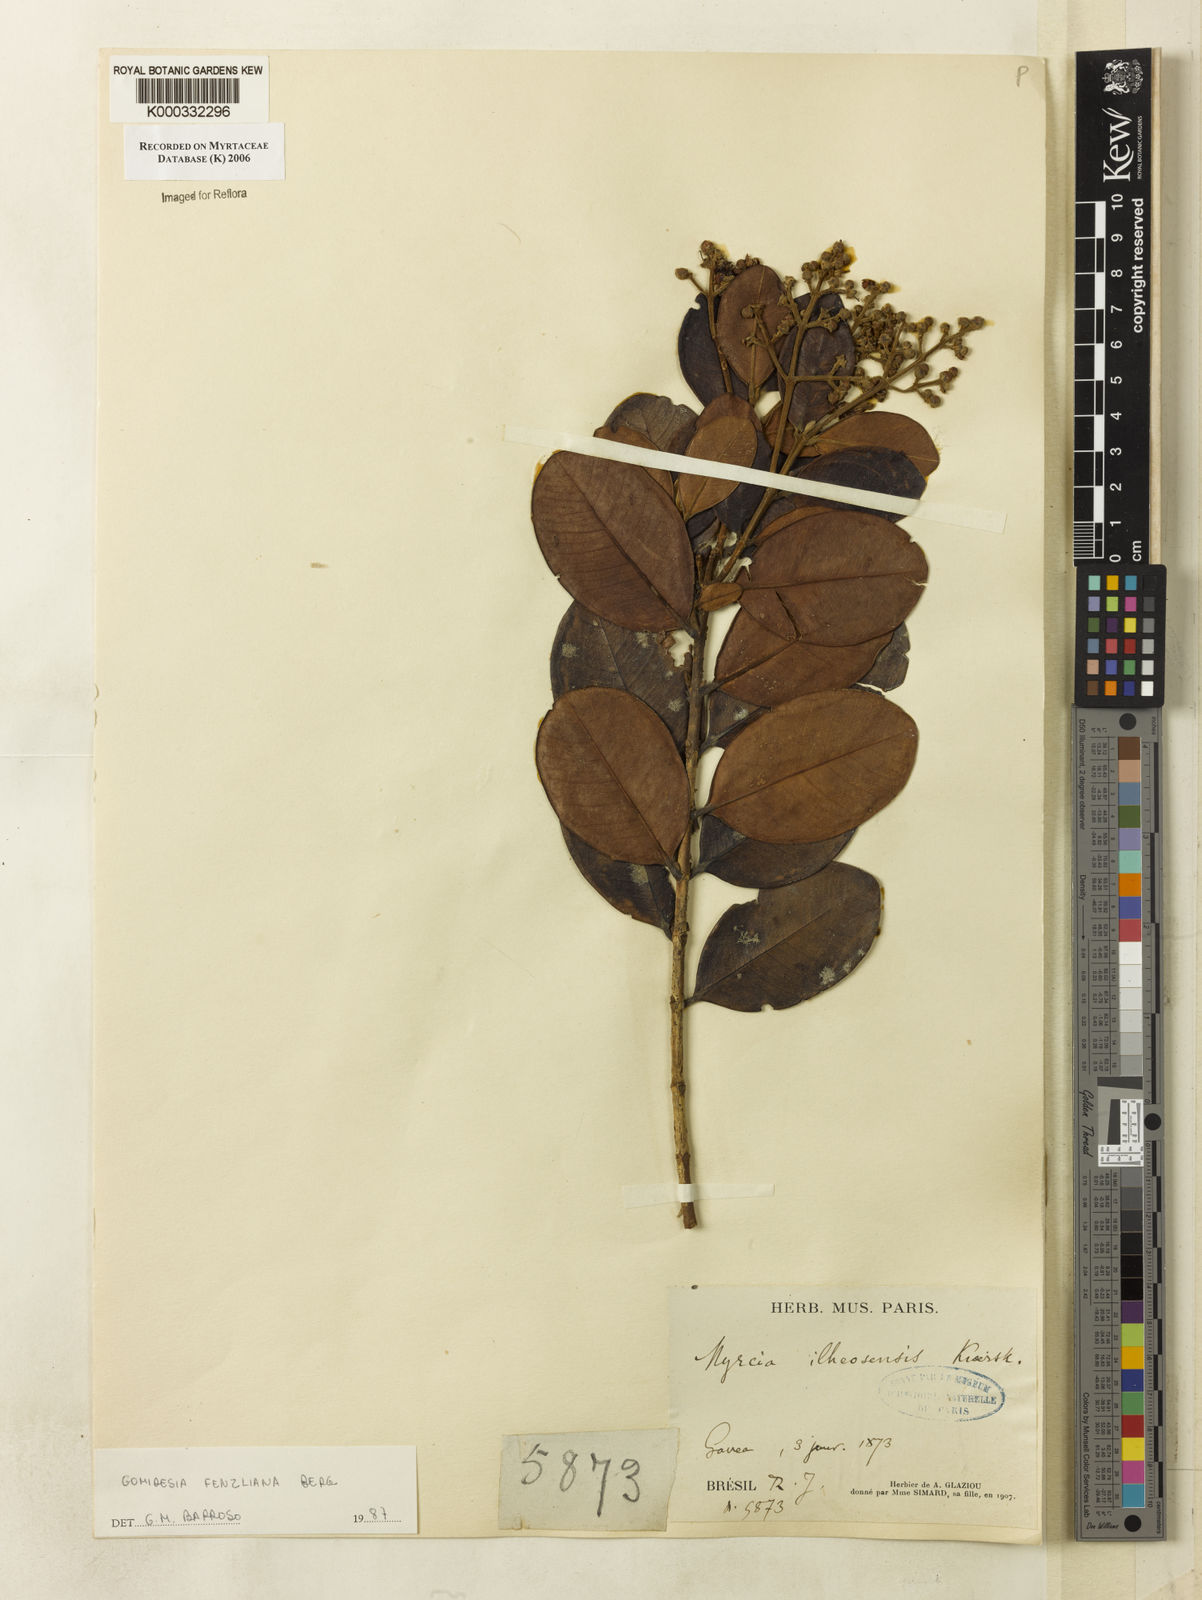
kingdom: Plantae
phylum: Tracheophyta
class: Magnoliopsida
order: Myrtales
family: Myrtaceae
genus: Myrcia
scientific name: Myrcia ilheosensis
